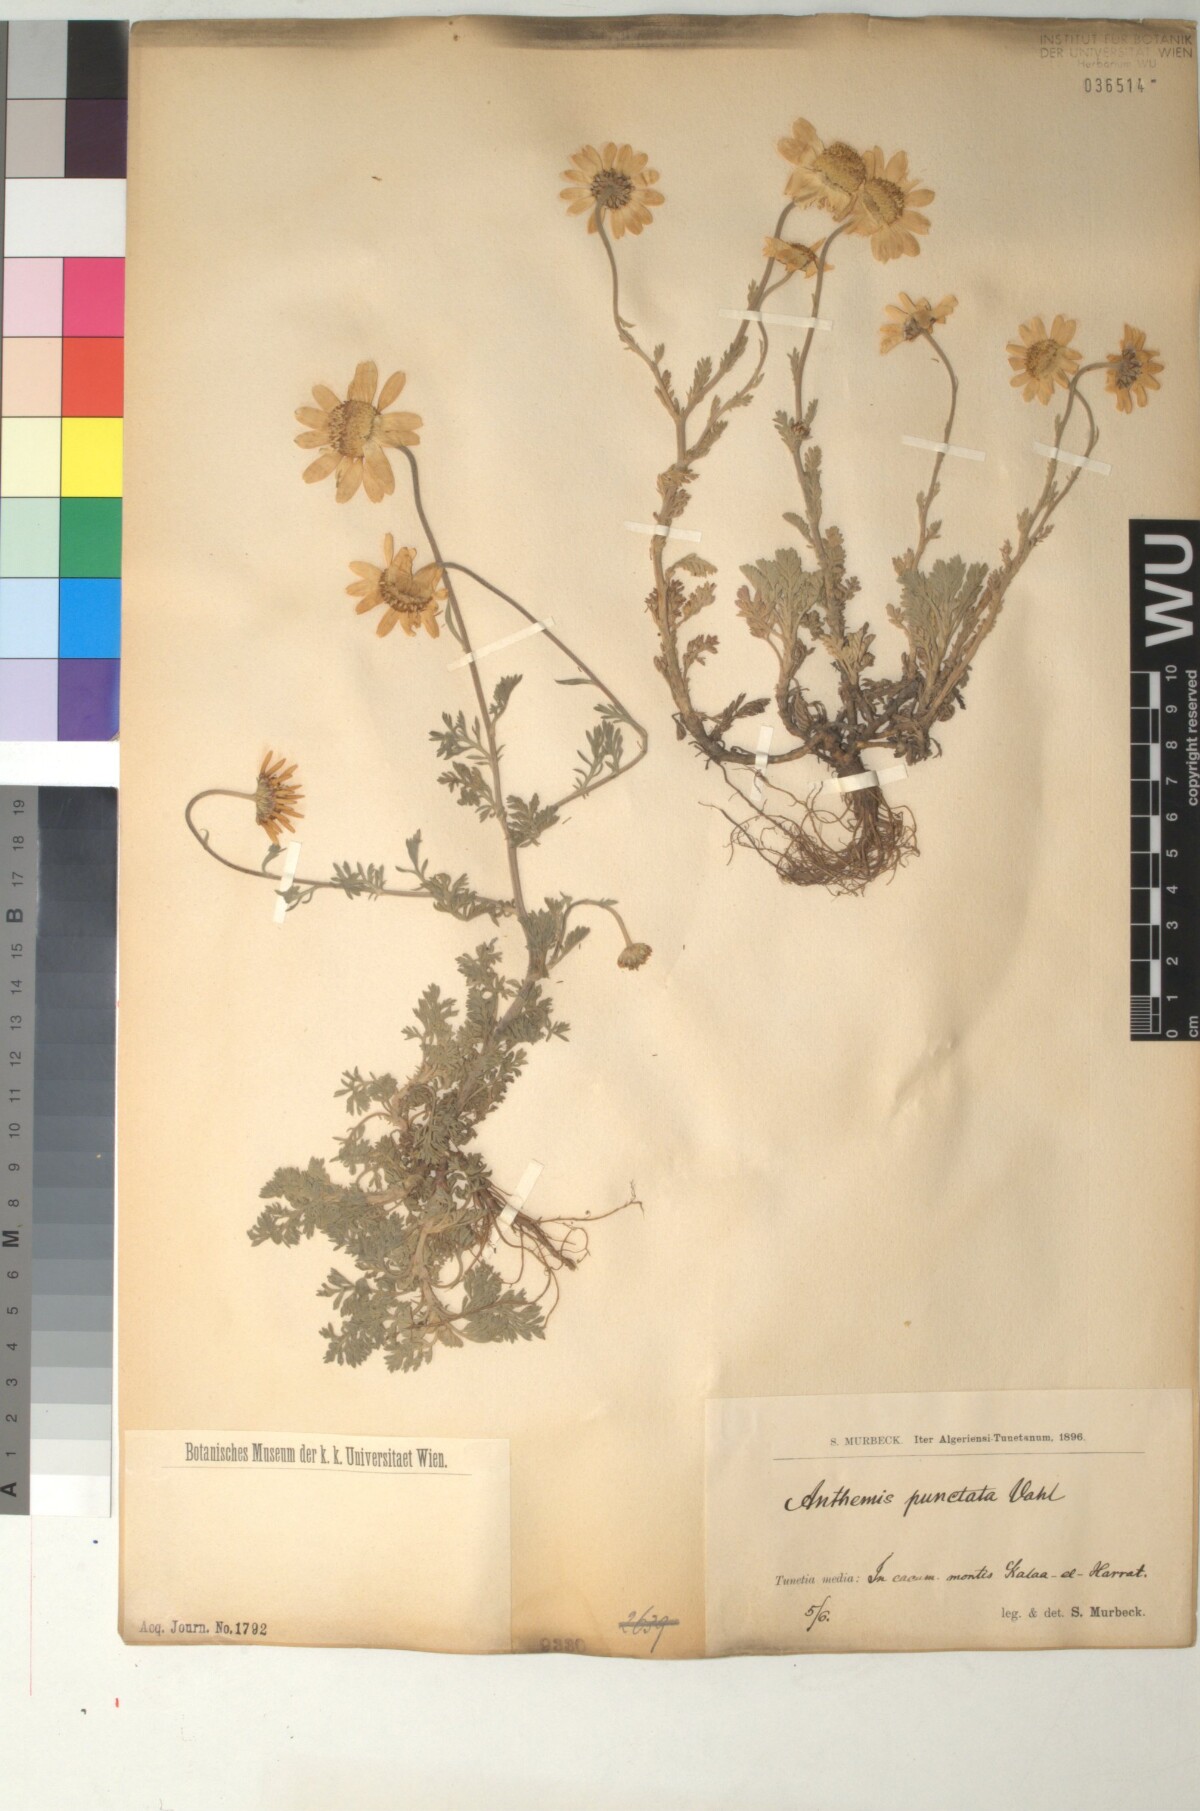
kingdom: Plantae
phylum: Tracheophyta
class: Magnoliopsida
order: Asterales
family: Asteraceae
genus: Anthemis
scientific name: Anthemis punctata
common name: Sicilian chamomile
